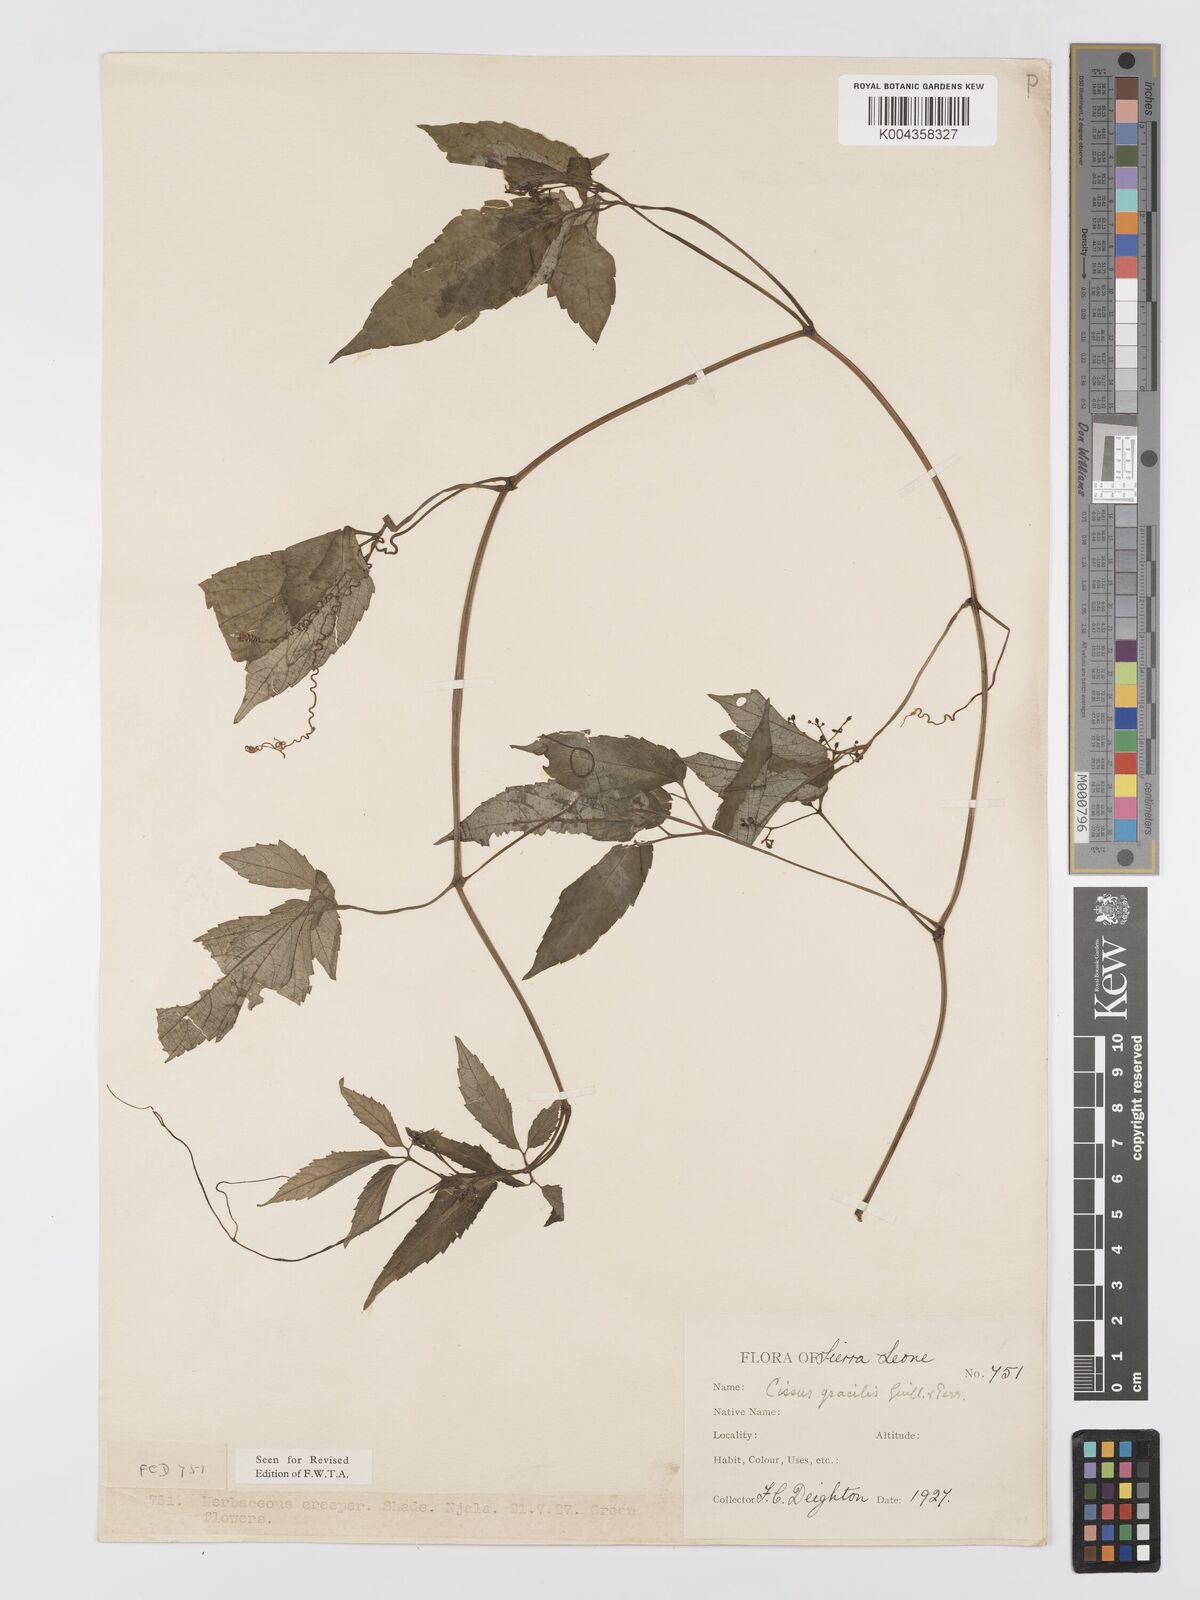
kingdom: Plantae
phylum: Tracheophyta
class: Magnoliopsida
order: Vitales
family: Vitaceae
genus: Afrocayratia
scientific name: Afrocayratia gracilis
